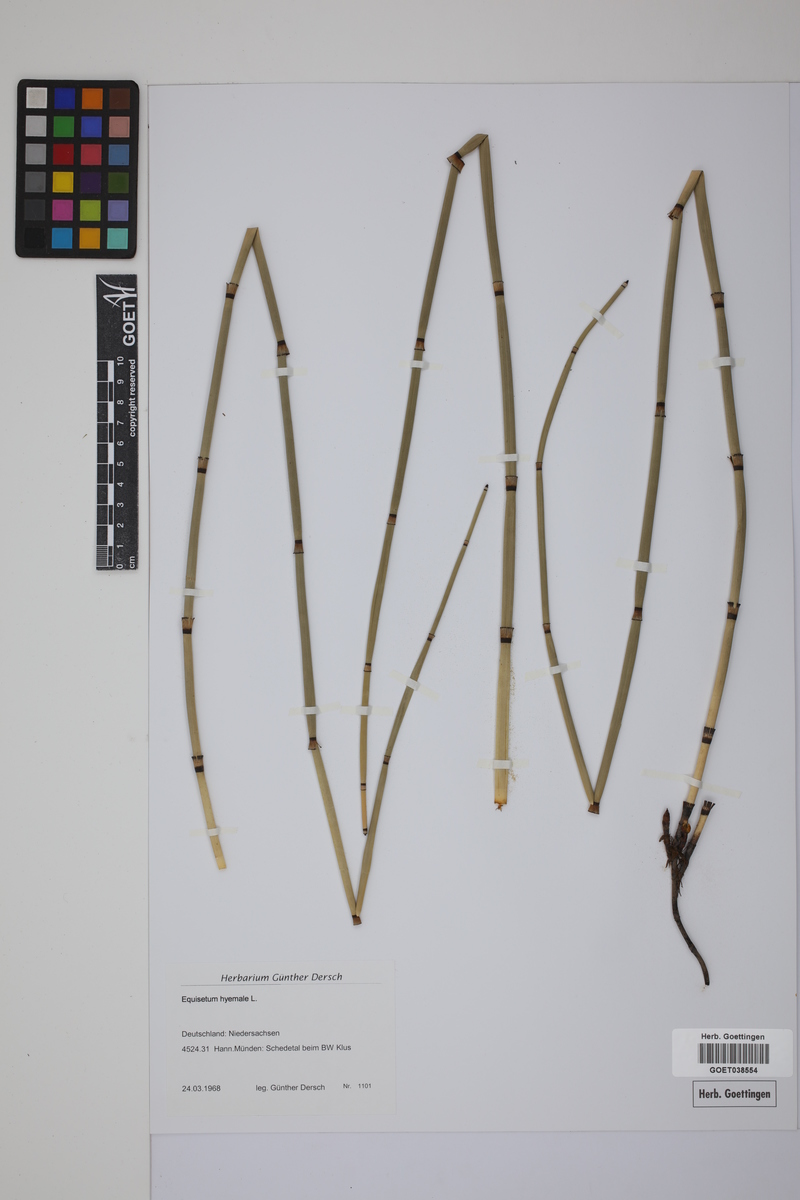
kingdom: Plantae
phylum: Tracheophyta
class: Polypodiopsida
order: Equisetales
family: Equisetaceae
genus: Equisetum
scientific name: Equisetum hyemale
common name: Rough horsetail
